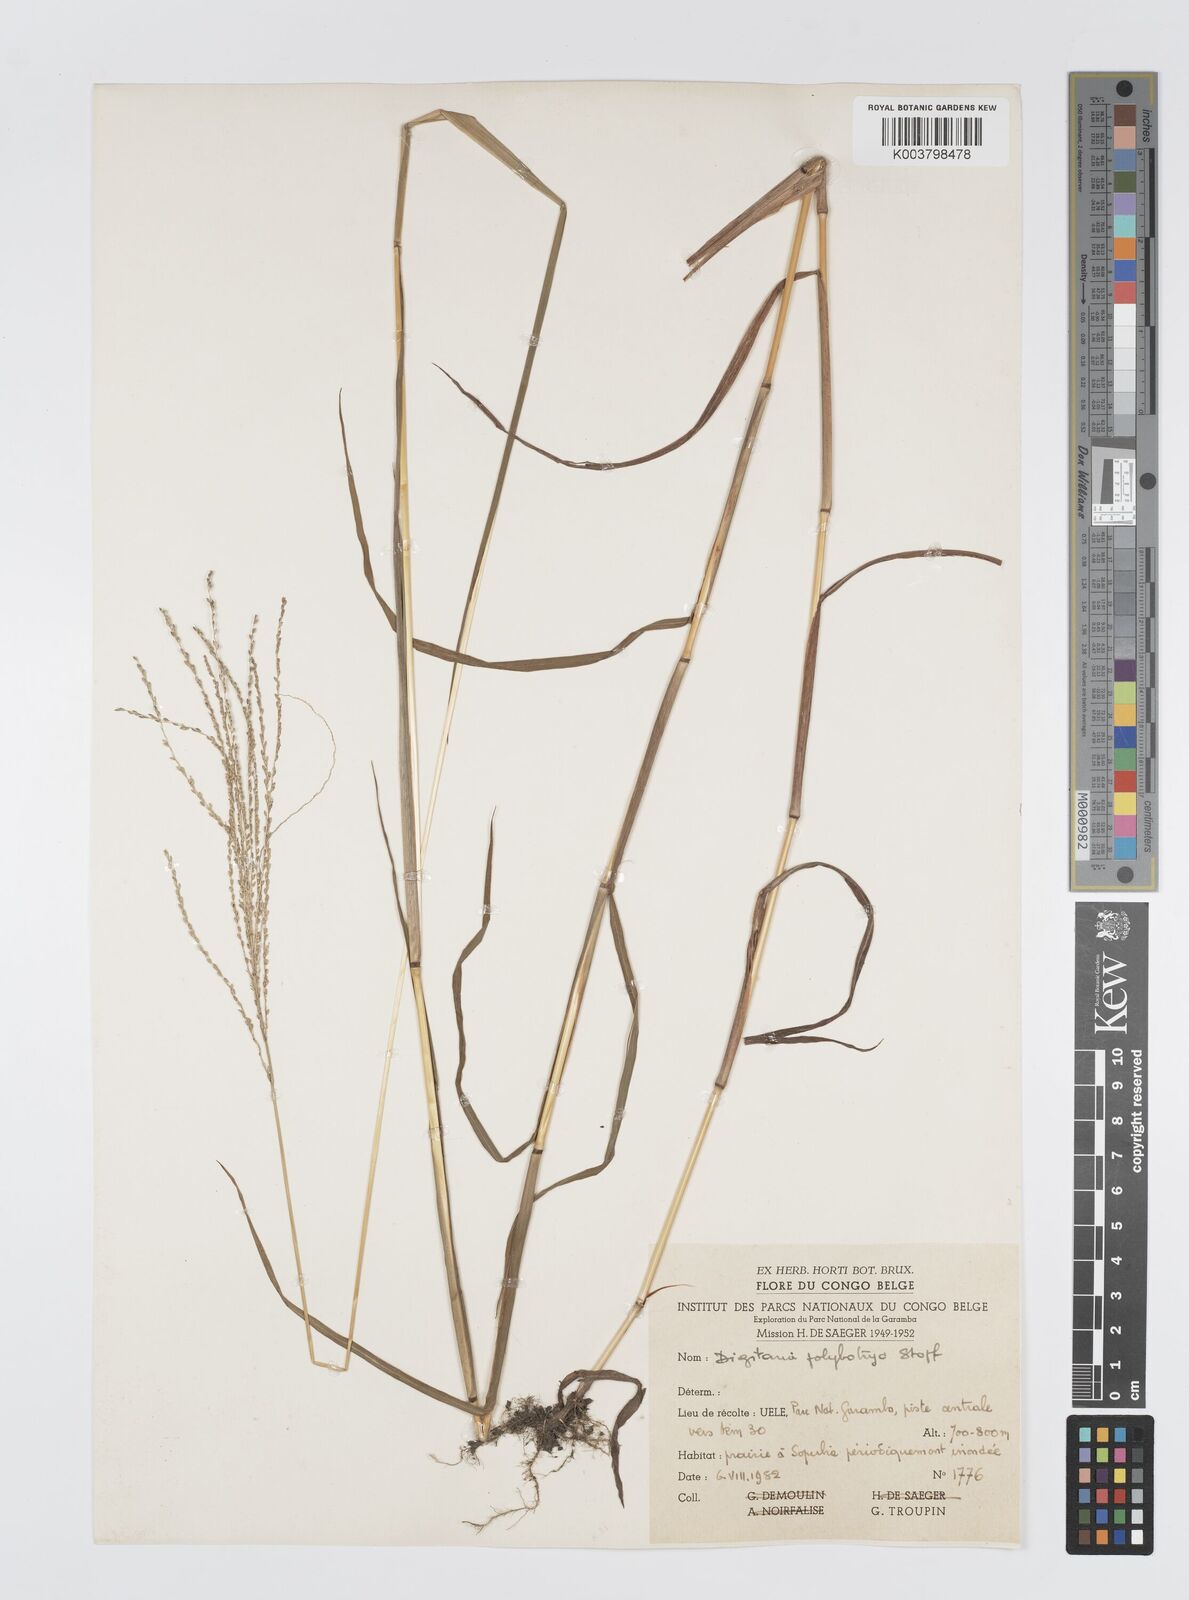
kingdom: Plantae
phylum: Tracheophyta
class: Liliopsida
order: Poales
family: Poaceae
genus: Digitaria
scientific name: Digitaria leptorhachis
